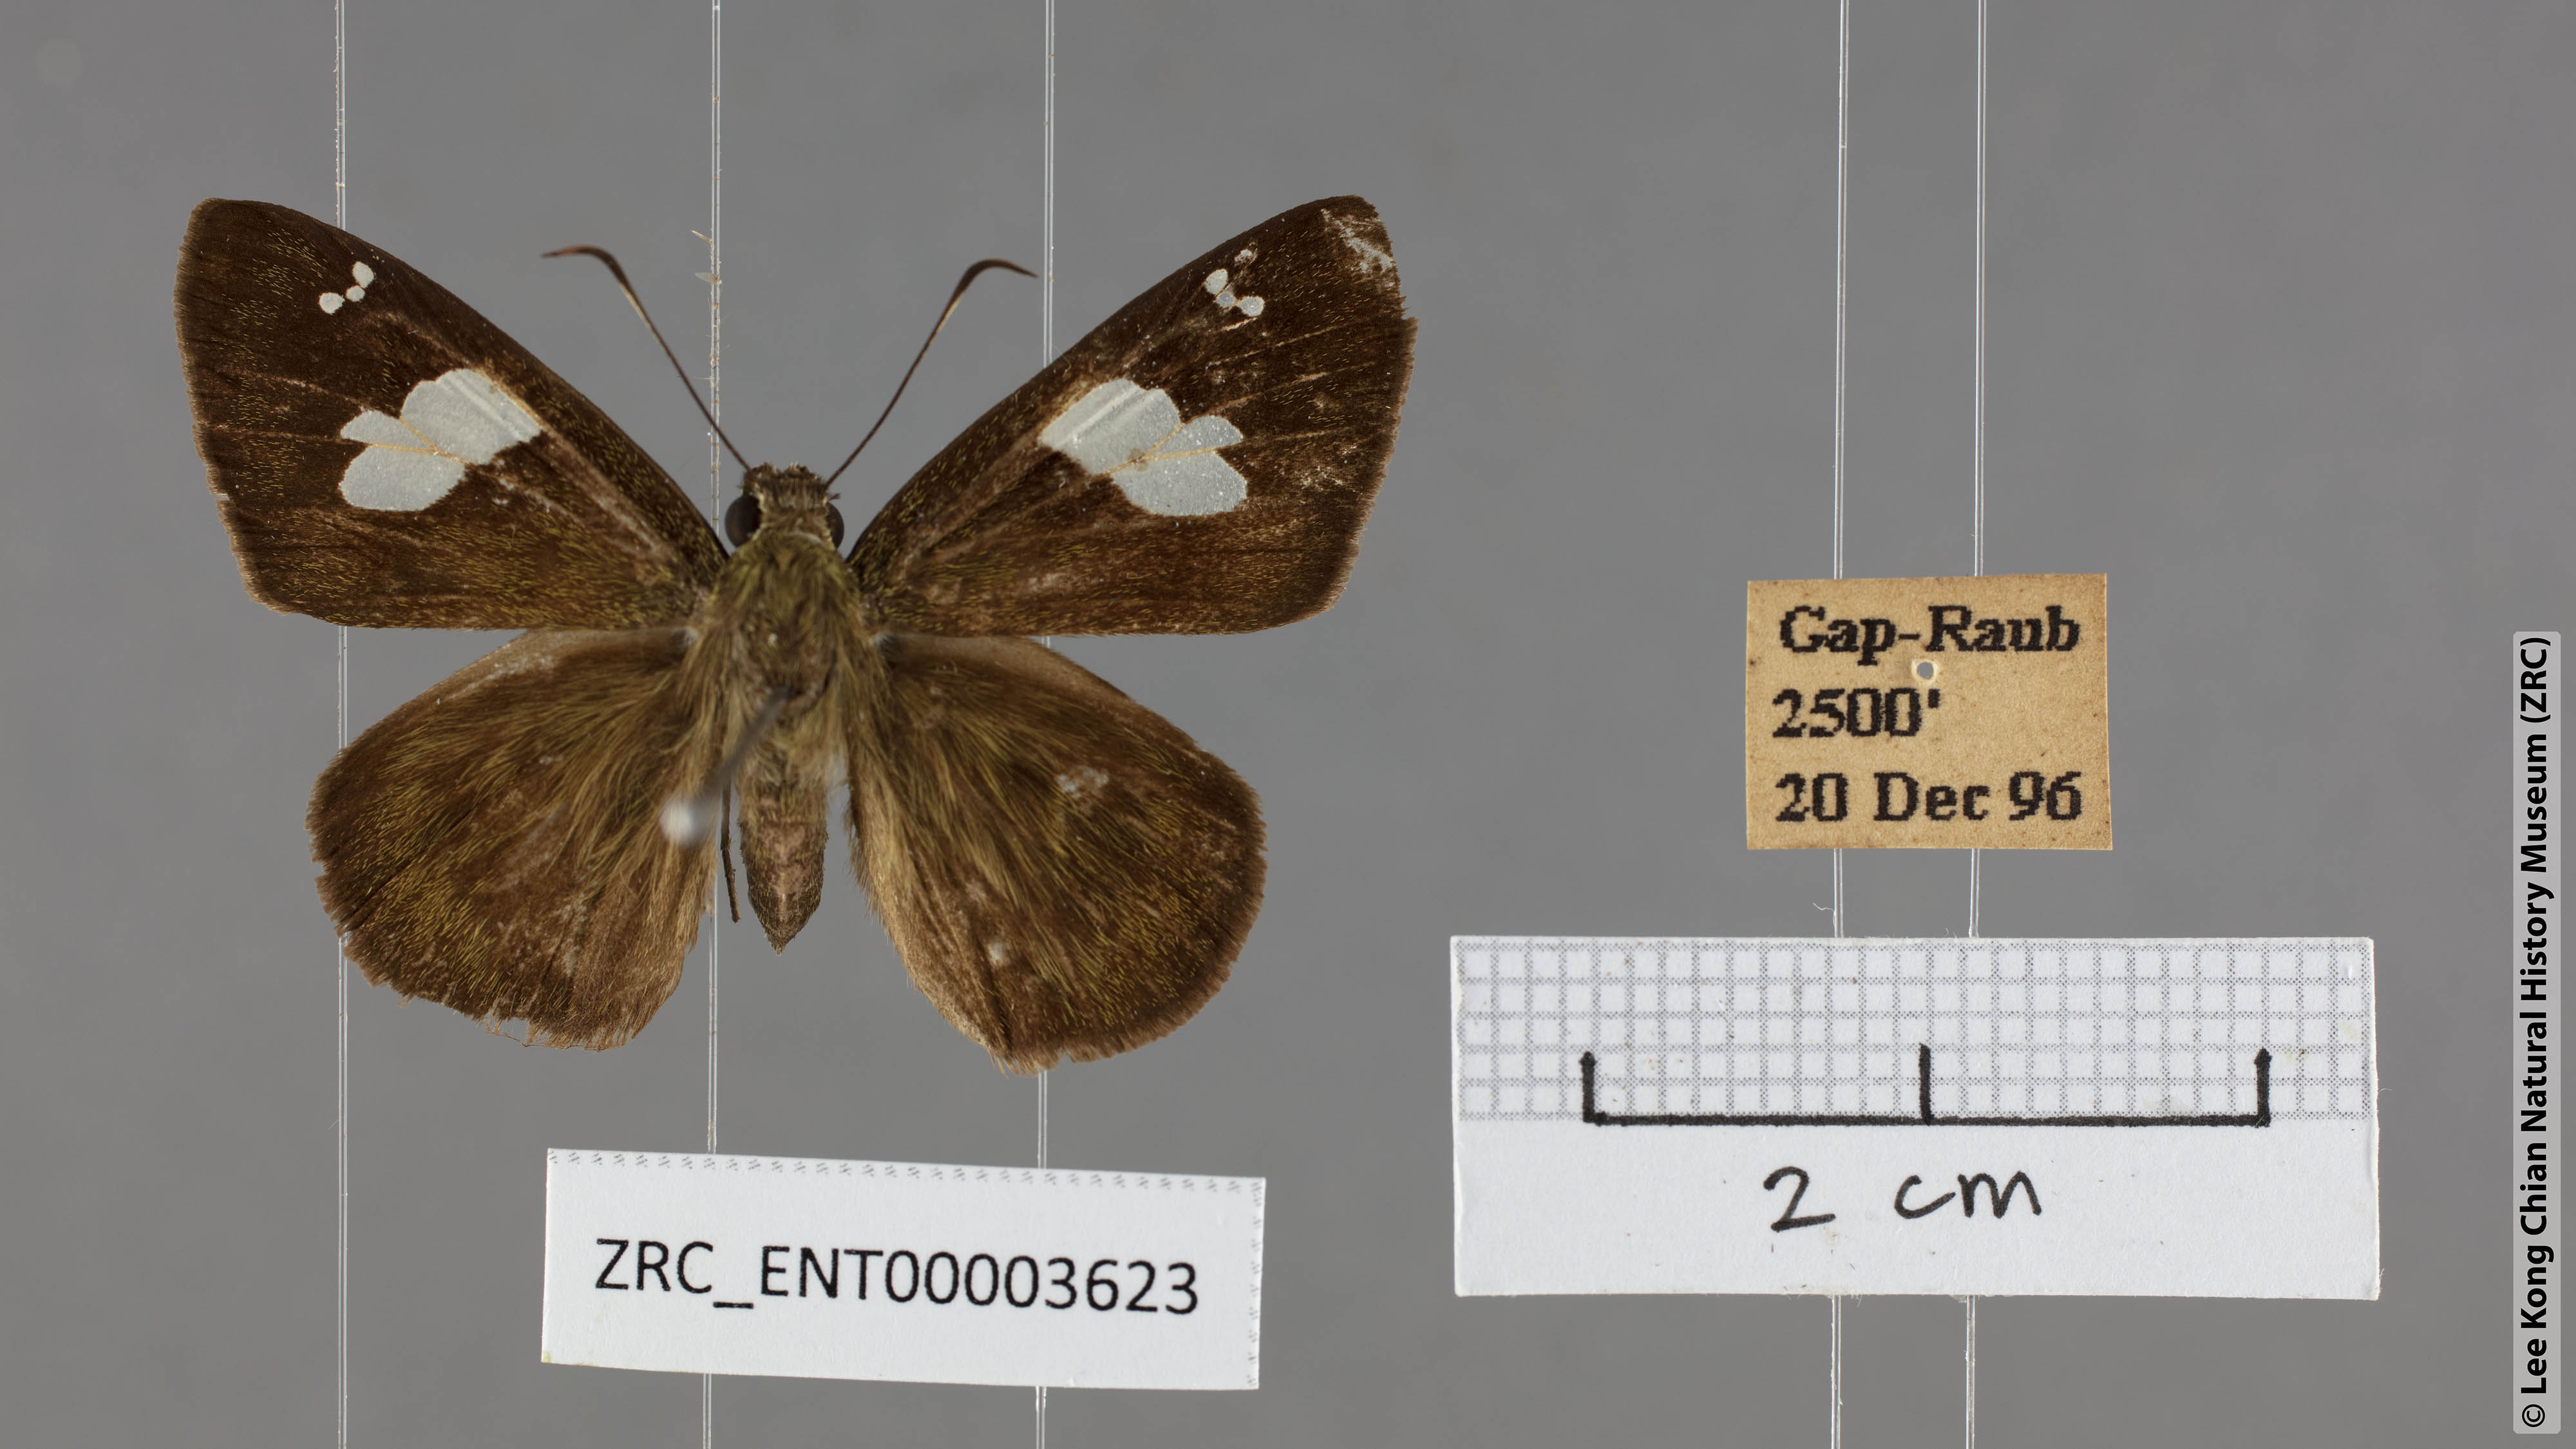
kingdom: Animalia
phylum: Arthropoda
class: Insecta
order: Lepidoptera
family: Hesperiidae
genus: Celaenorrhinus
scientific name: Celaenorrhinus asmara
